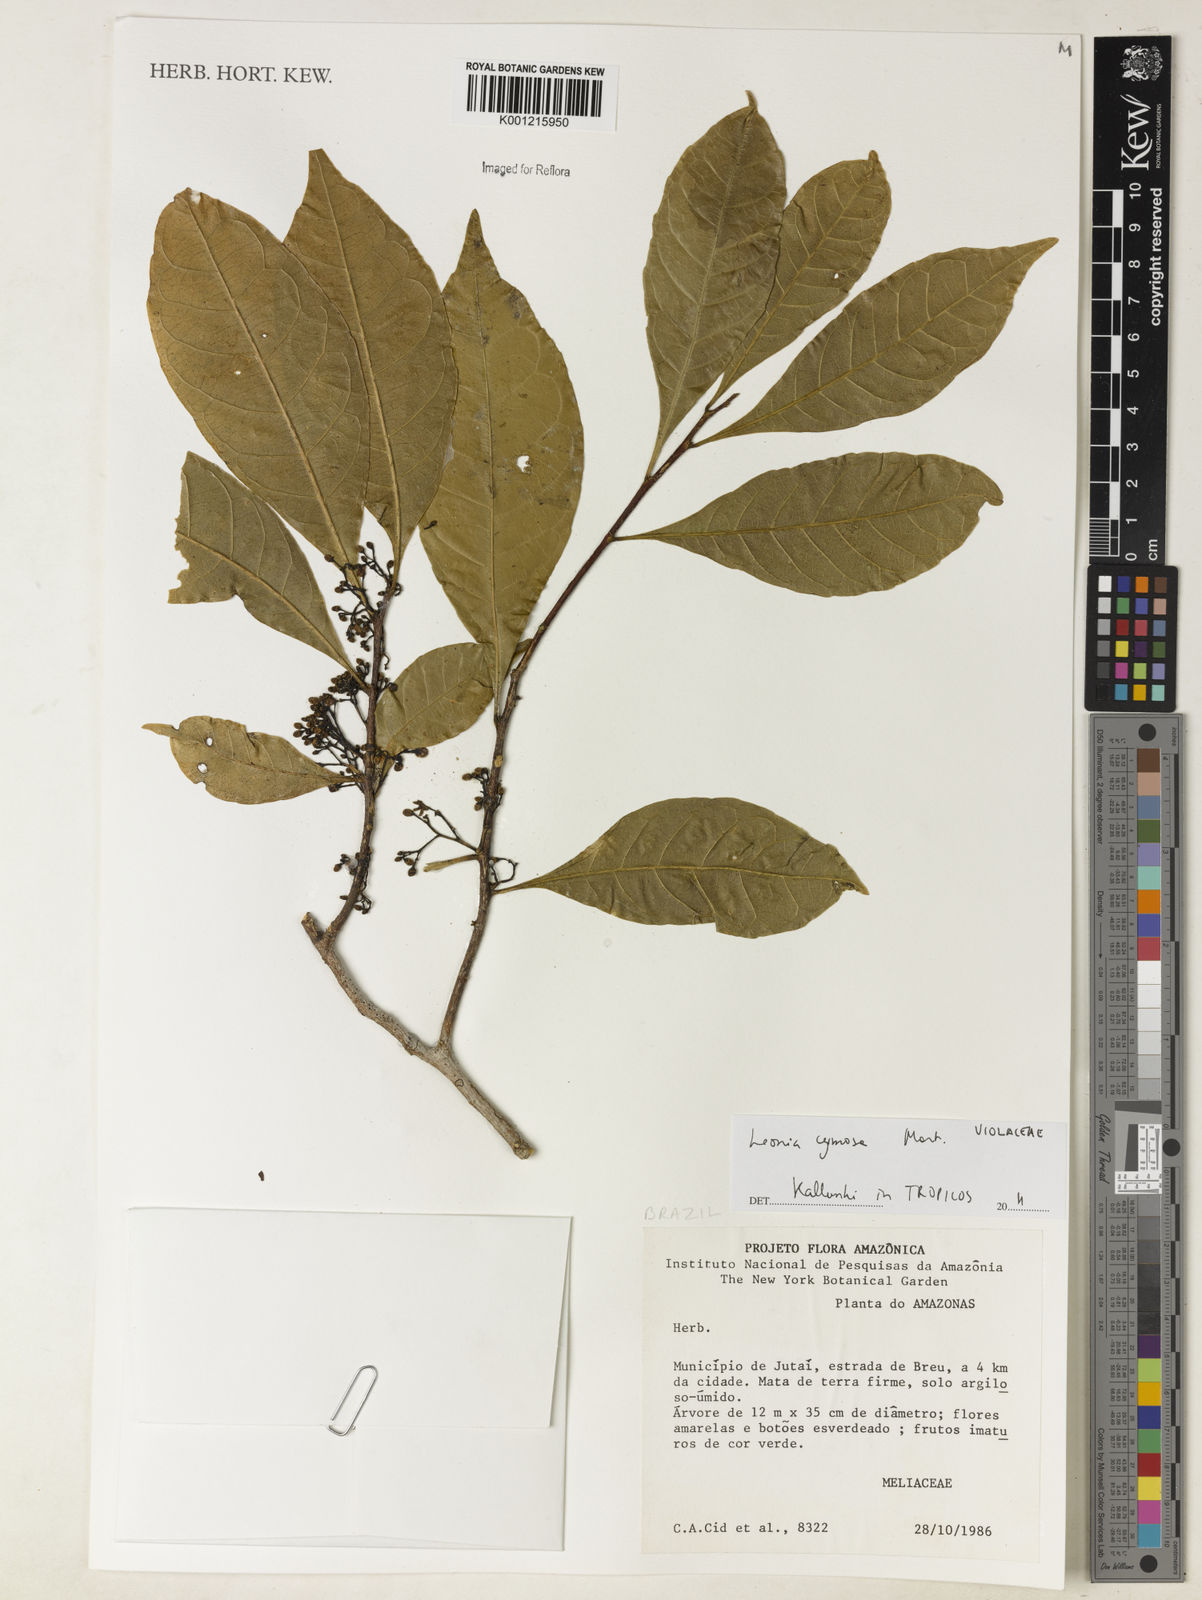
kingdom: Plantae
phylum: Tracheophyta
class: Magnoliopsida
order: Malpighiales
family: Violaceae
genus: Leonia
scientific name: Leonia cymosa
